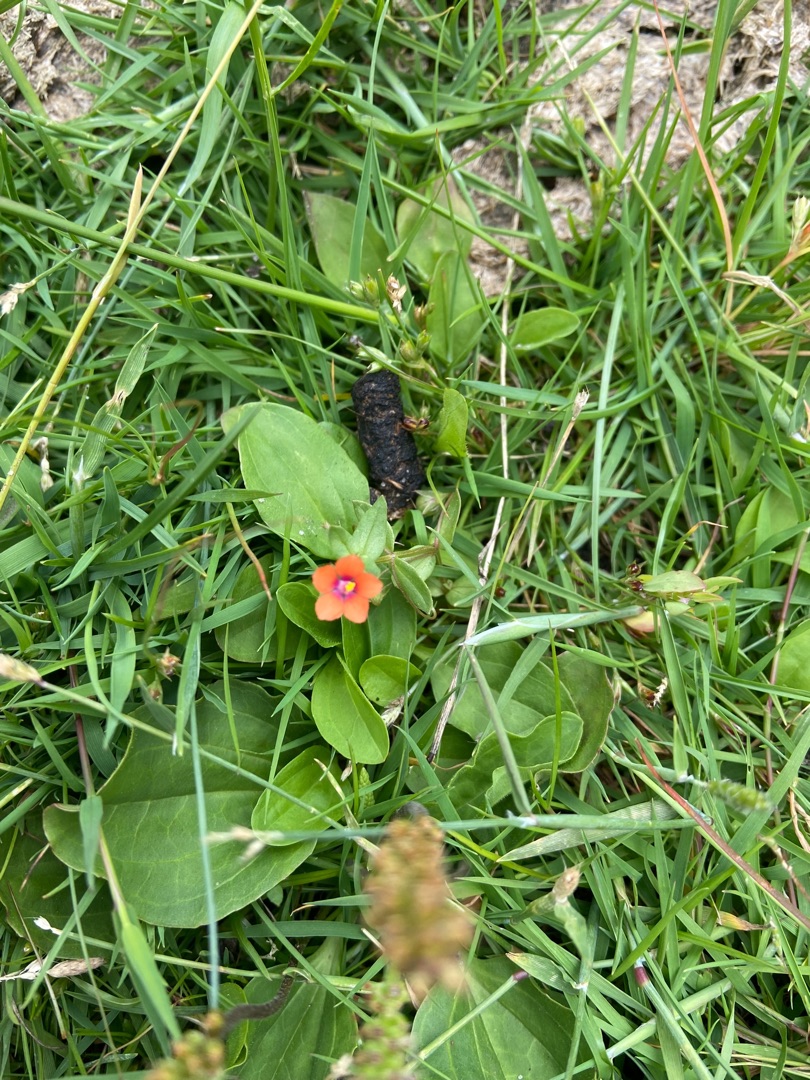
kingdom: Plantae
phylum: Tracheophyta
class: Magnoliopsida
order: Ericales
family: Primulaceae
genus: Lysimachia
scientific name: Lysimachia arvensis
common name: Rød arve
